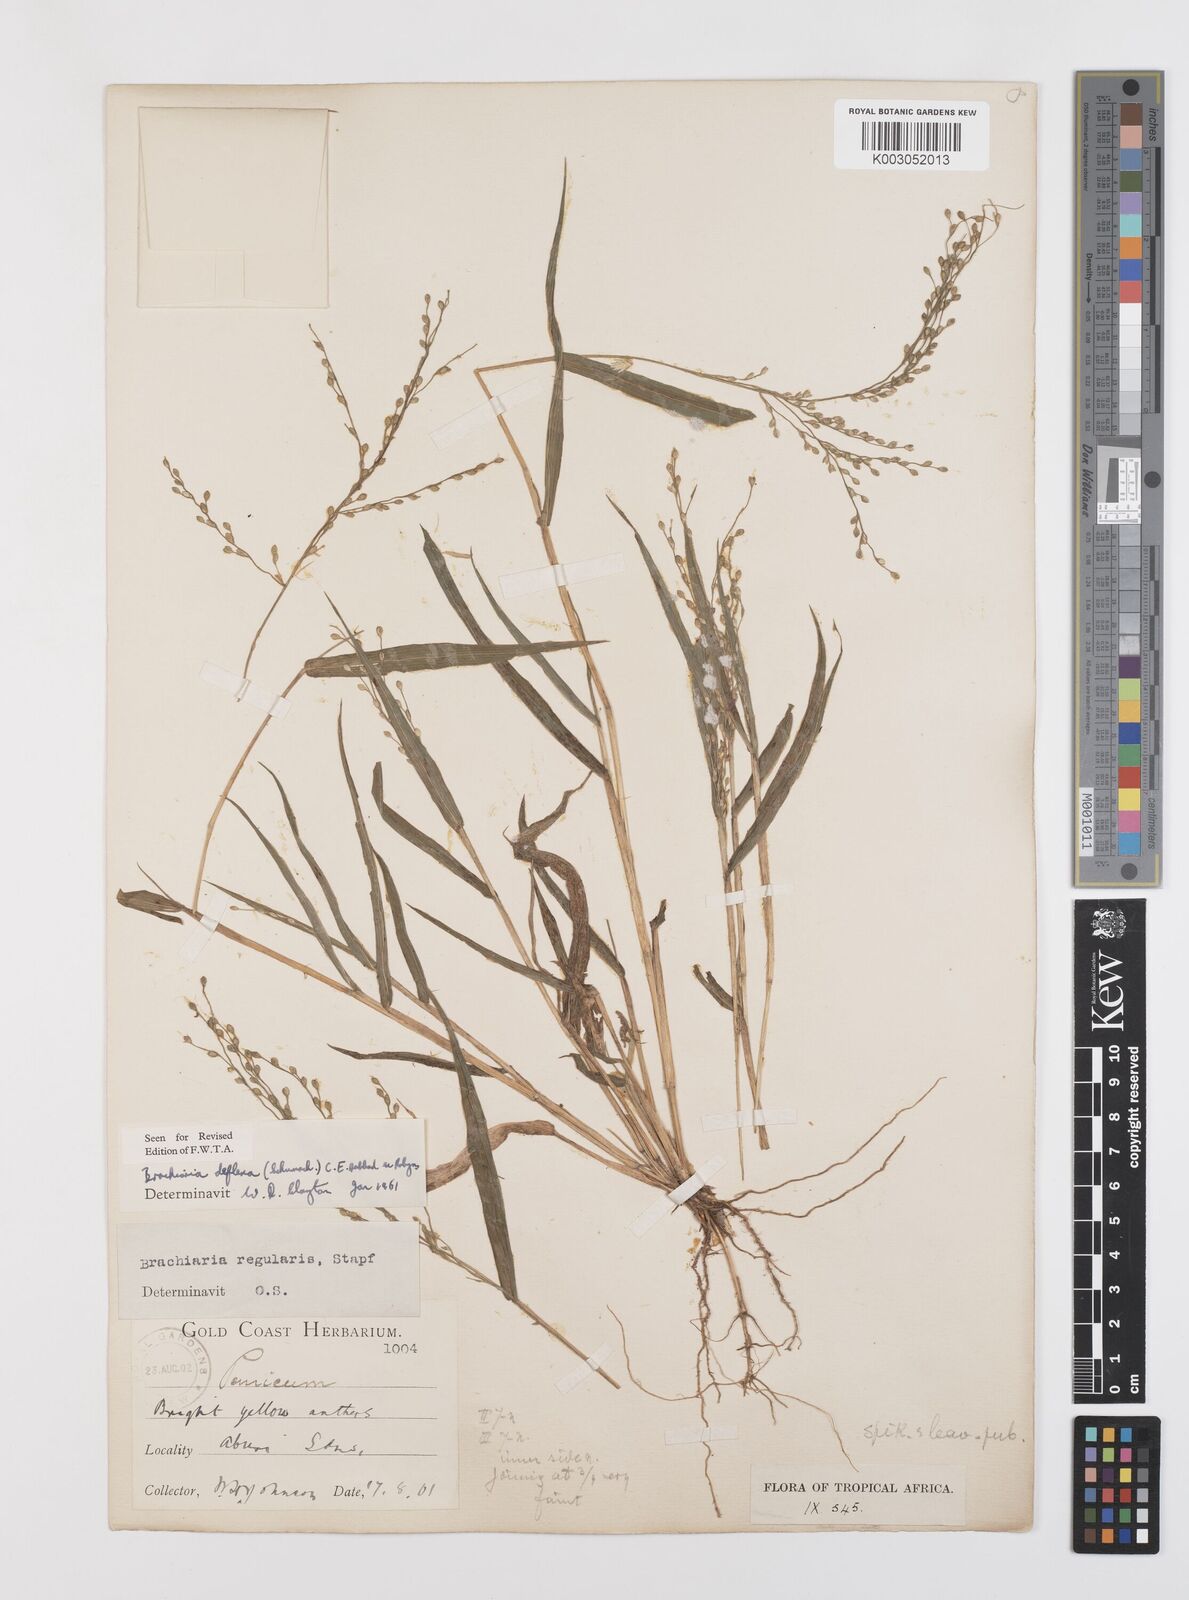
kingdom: Plantae
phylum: Tracheophyta
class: Liliopsida
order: Poales
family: Poaceae
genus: Urochloa
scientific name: Urochloa deflexa
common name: Guinea millet
